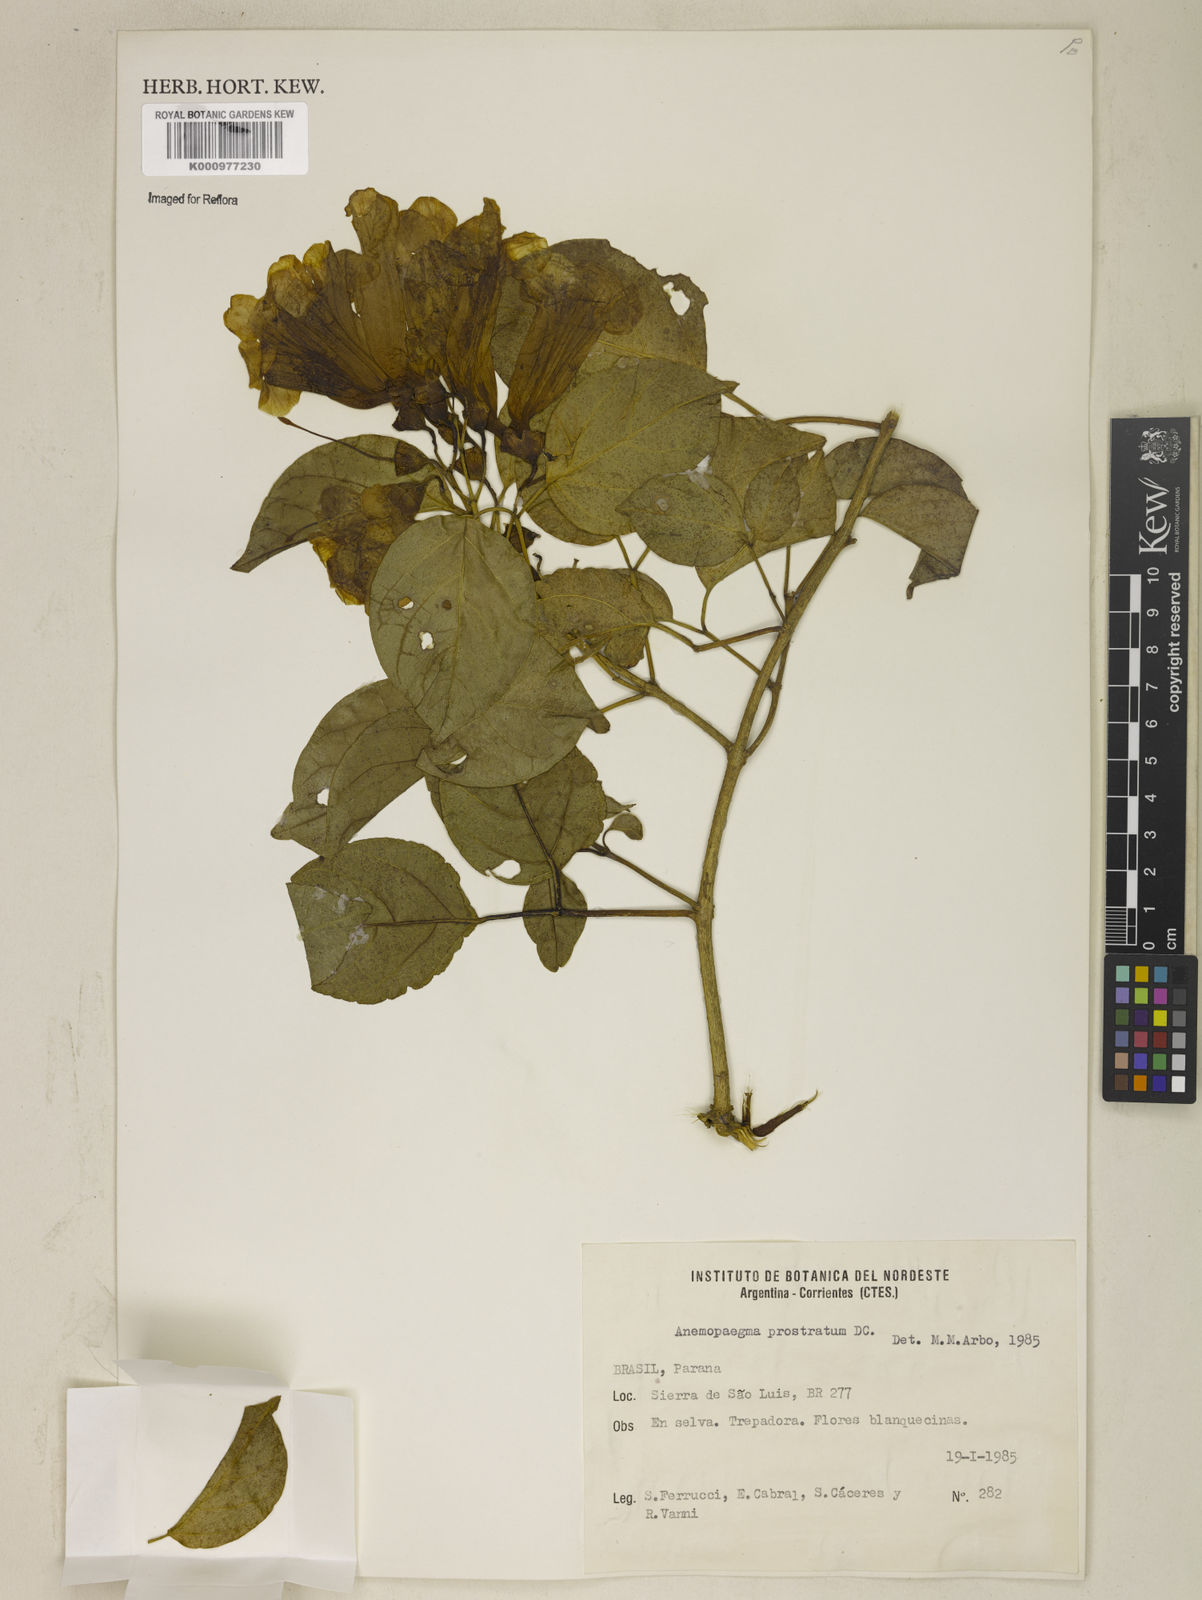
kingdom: Plantae
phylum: Tracheophyta
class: Magnoliopsida
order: Lamiales
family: Bignoniaceae
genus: Anemopaegma
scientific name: Anemopaegma
